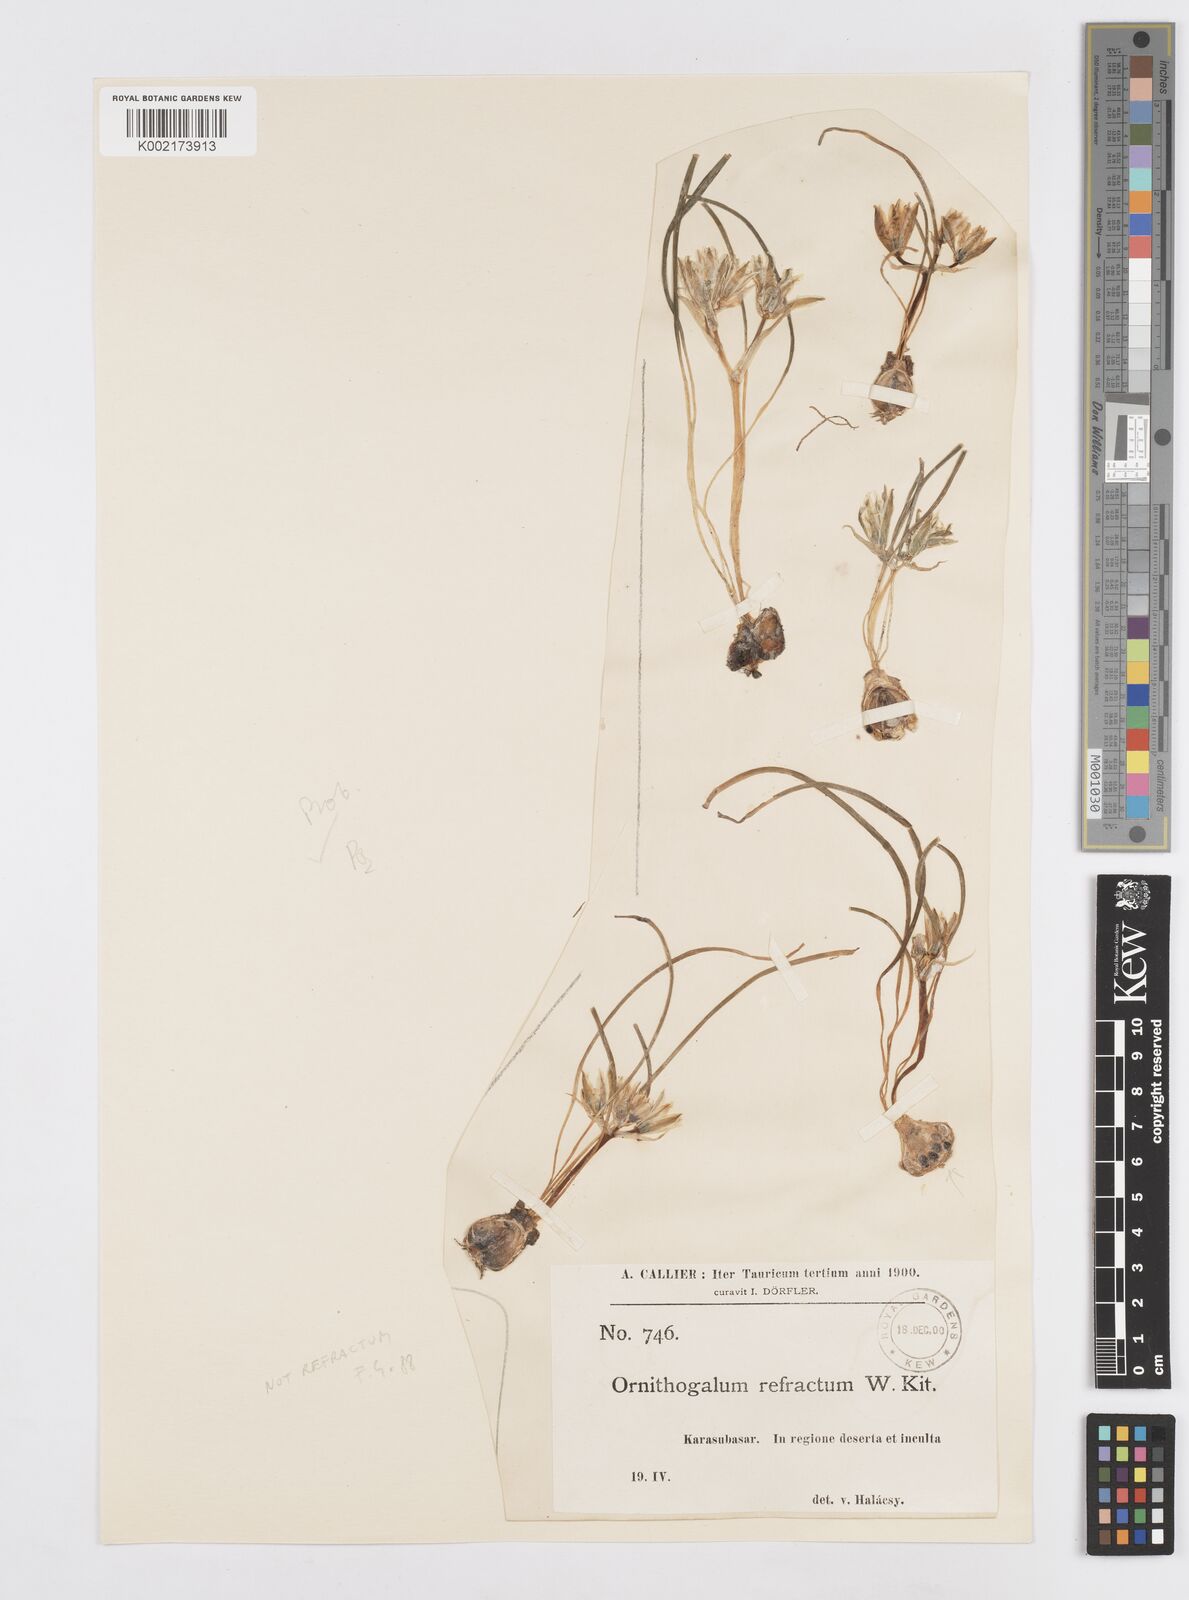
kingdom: Plantae
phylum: Tracheophyta
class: Liliopsida
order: Asparagales
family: Asparagaceae
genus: Ornithogalum
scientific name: Ornithogalum refractum
